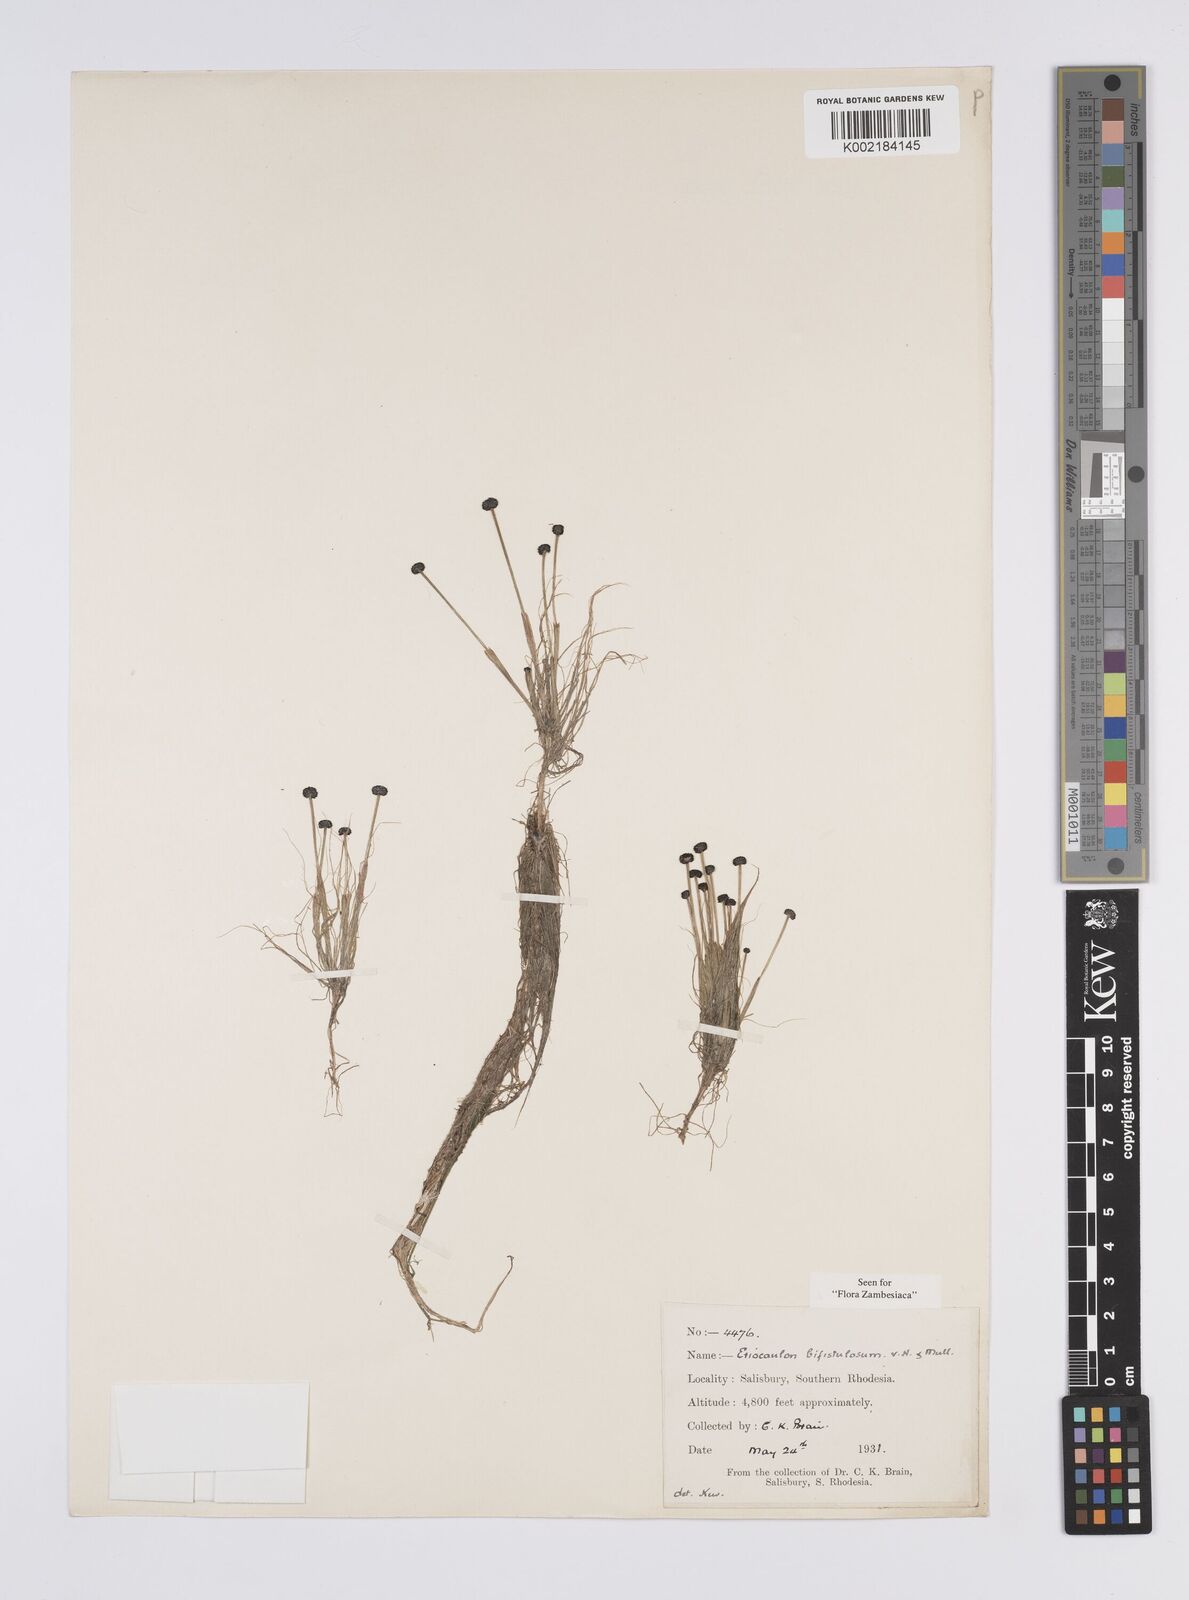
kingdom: Plantae
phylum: Tracheophyta
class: Liliopsida
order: Poales
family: Eriocaulaceae
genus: Eriocaulon
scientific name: Eriocaulon setaceum
